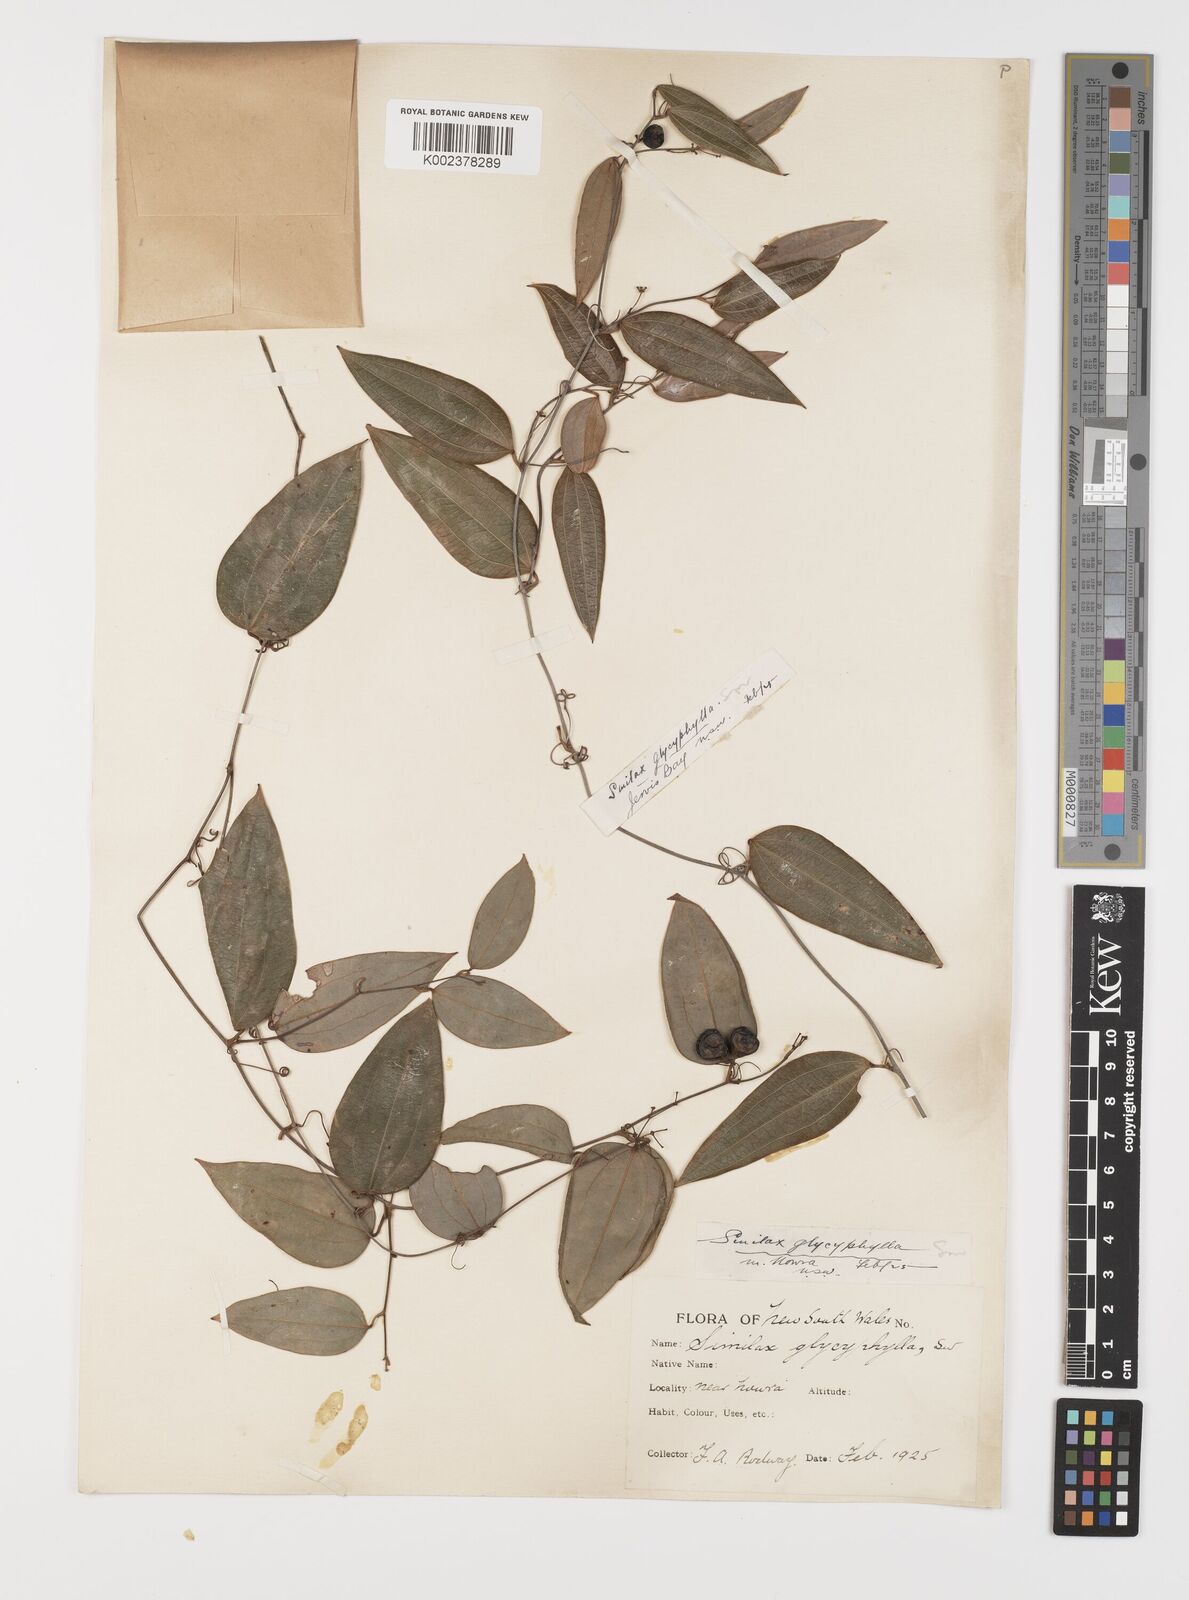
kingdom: Plantae
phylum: Tracheophyta
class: Liliopsida
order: Liliales
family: Smilacaceae
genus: Smilax
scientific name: Smilax leucophylla
